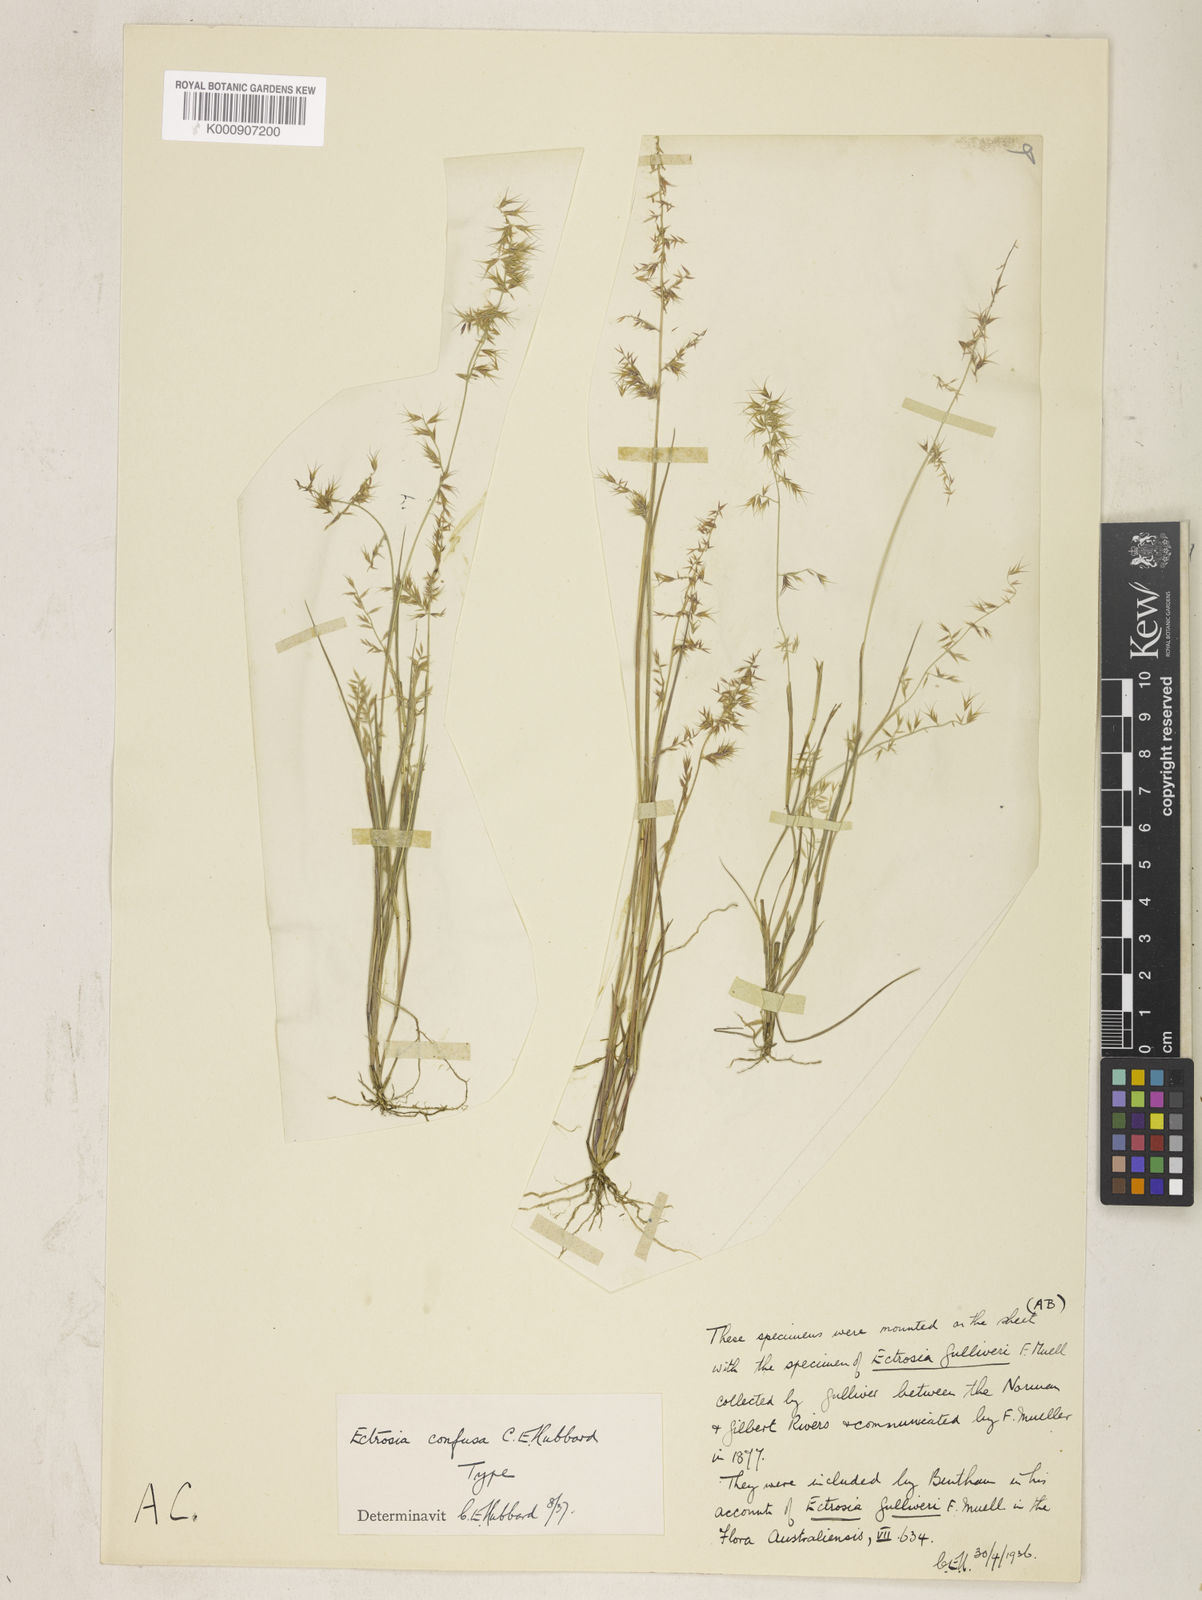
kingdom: Plantae
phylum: Tracheophyta
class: Liliopsida
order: Poales
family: Poaceae
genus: Eragrostis
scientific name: Eragrostis confusa
